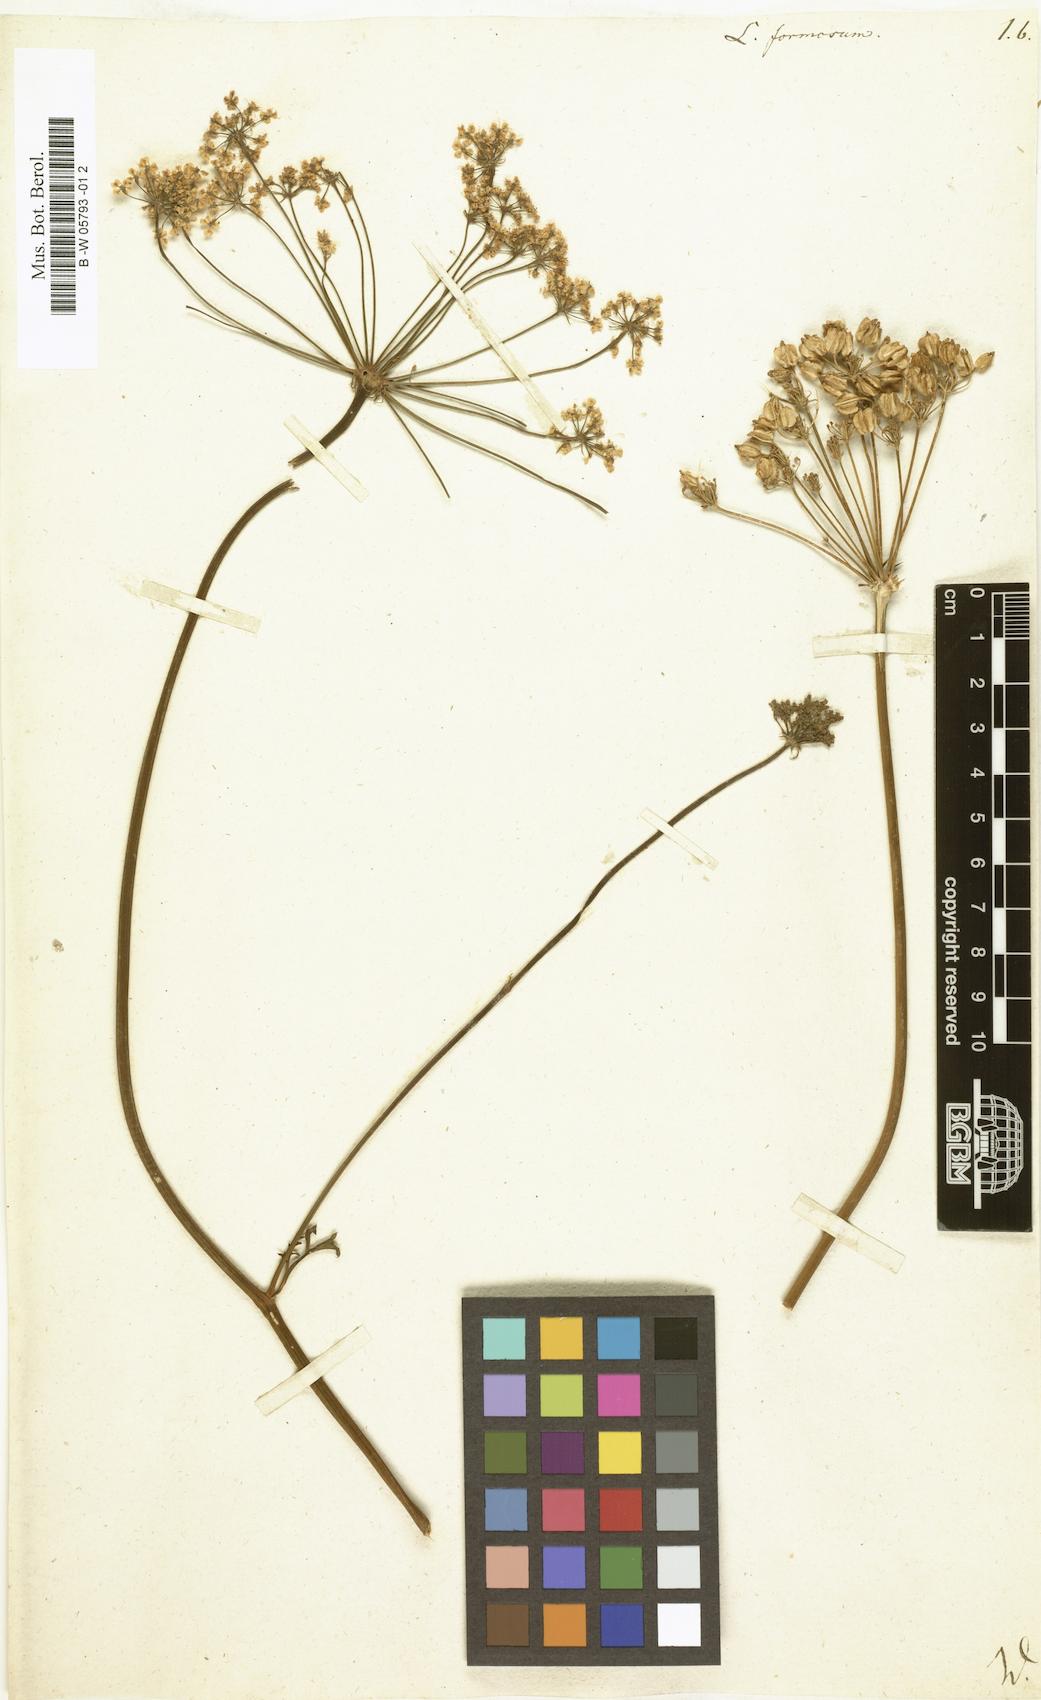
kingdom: Plantae
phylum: Tracheophyta
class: Magnoliopsida
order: Apiales
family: Apiaceae
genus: Laserpitium
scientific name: Laserpitium gallicum
